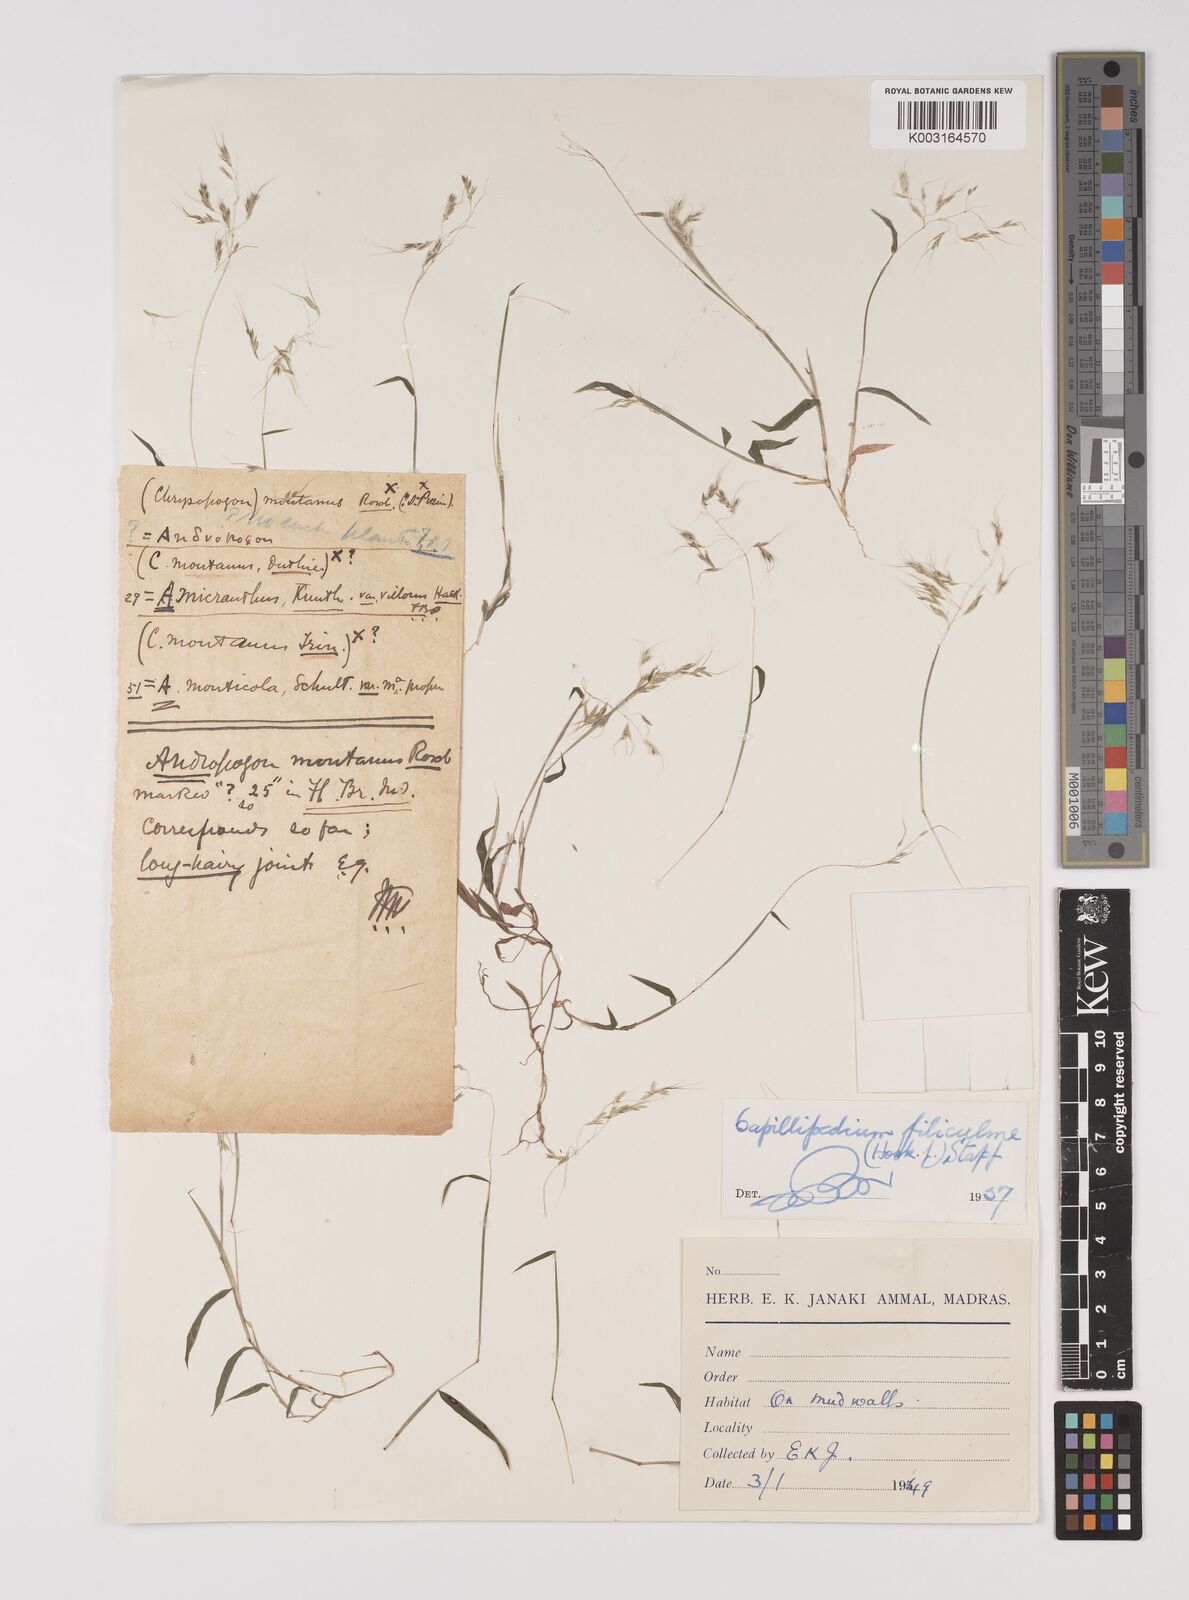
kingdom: Plantae
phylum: Tracheophyta
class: Liliopsida
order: Poales
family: Poaceae
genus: Capillipedium
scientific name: Capillipedium filiculme
